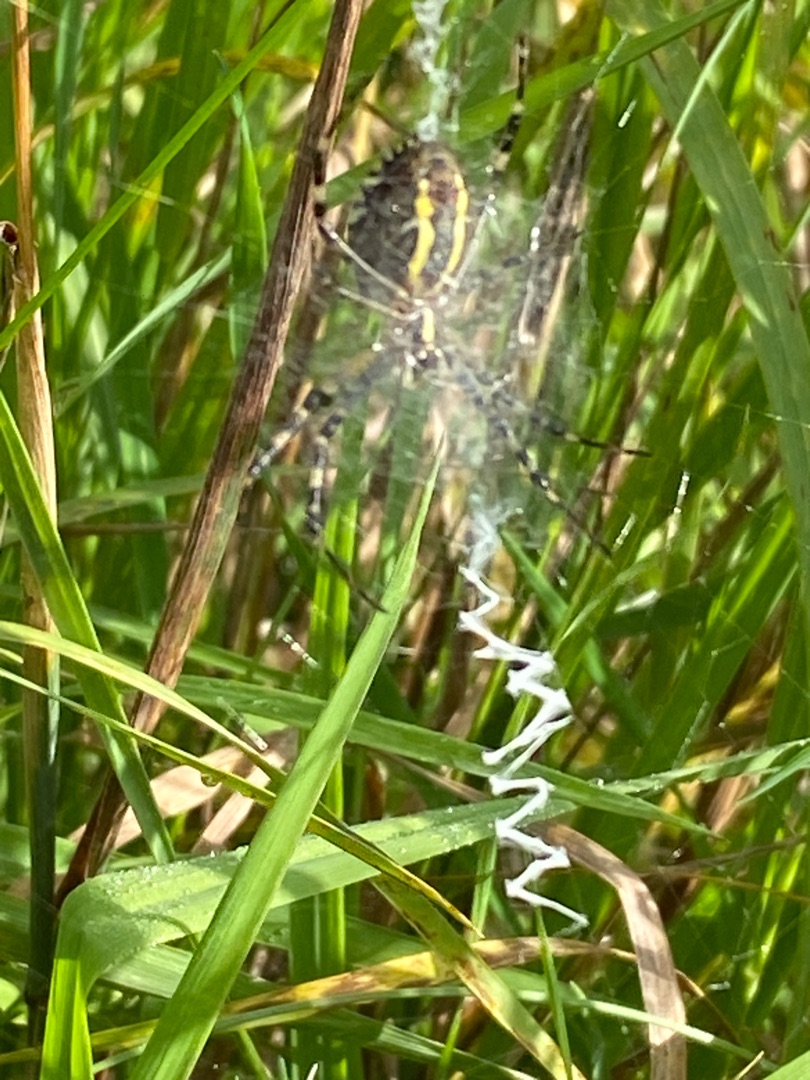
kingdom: Animalia
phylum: Arthropoda
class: Arachnida
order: Araneae
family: Araneidae
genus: Argiope
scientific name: Argiope bruennichi
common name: Hvepseedderkop
